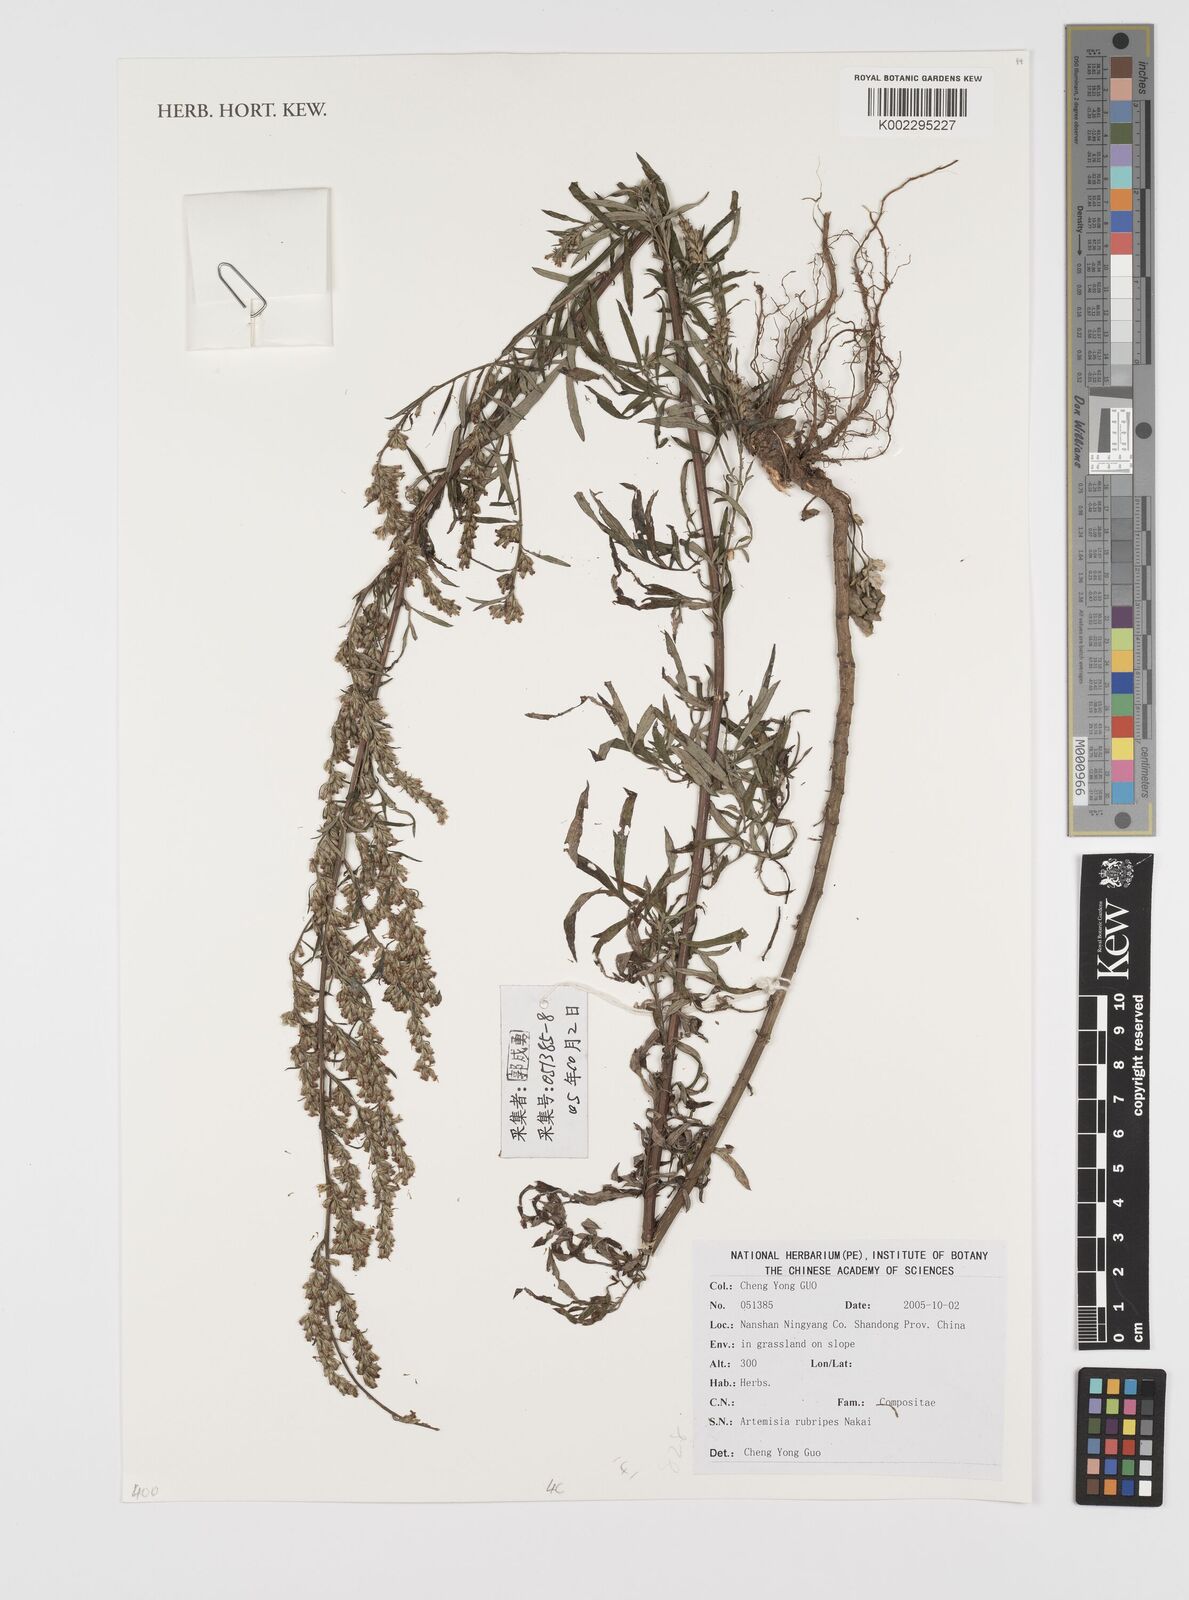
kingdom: Plantae
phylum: Tracheophyta
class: Magnoliopsida
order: Asterales
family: Asteraceae
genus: Artemisia
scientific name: Artemisia rubripes
